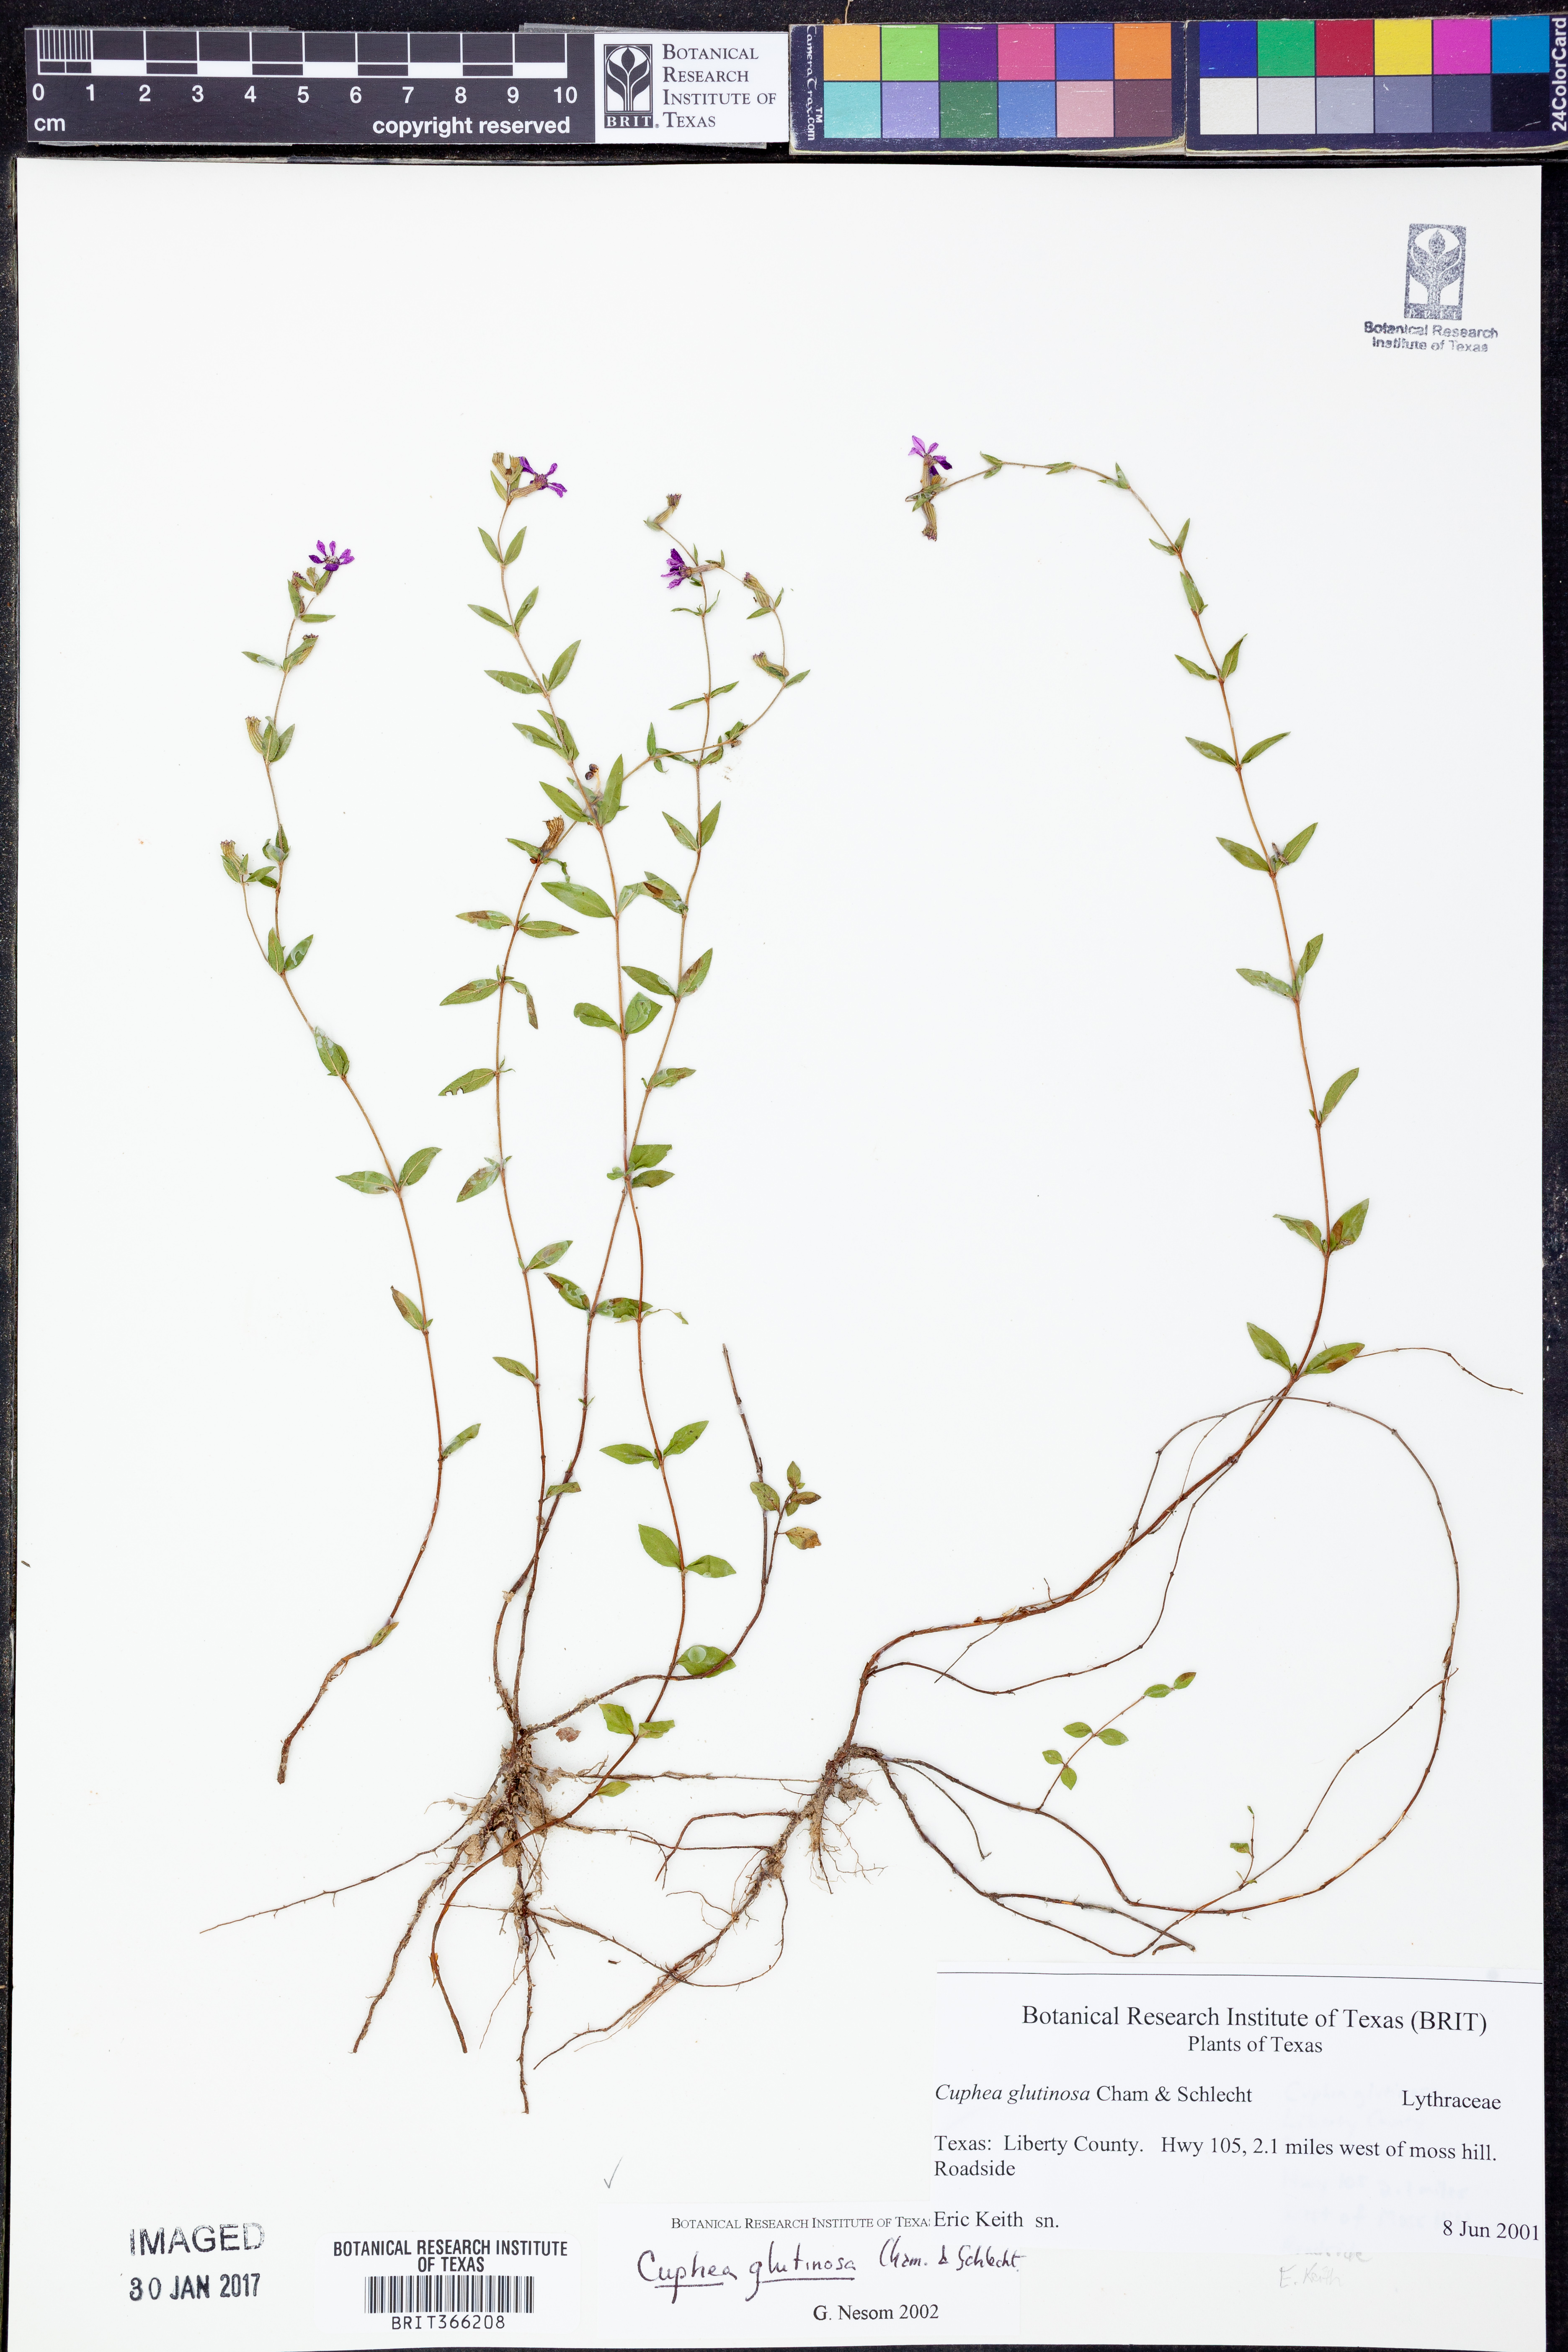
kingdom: Plantae
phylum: Tracheophyta
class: Magnoliopsida
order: Myrtales
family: Lythraceae
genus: Cuphea
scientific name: Cuphea glutinosa
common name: Sticky waxweed
